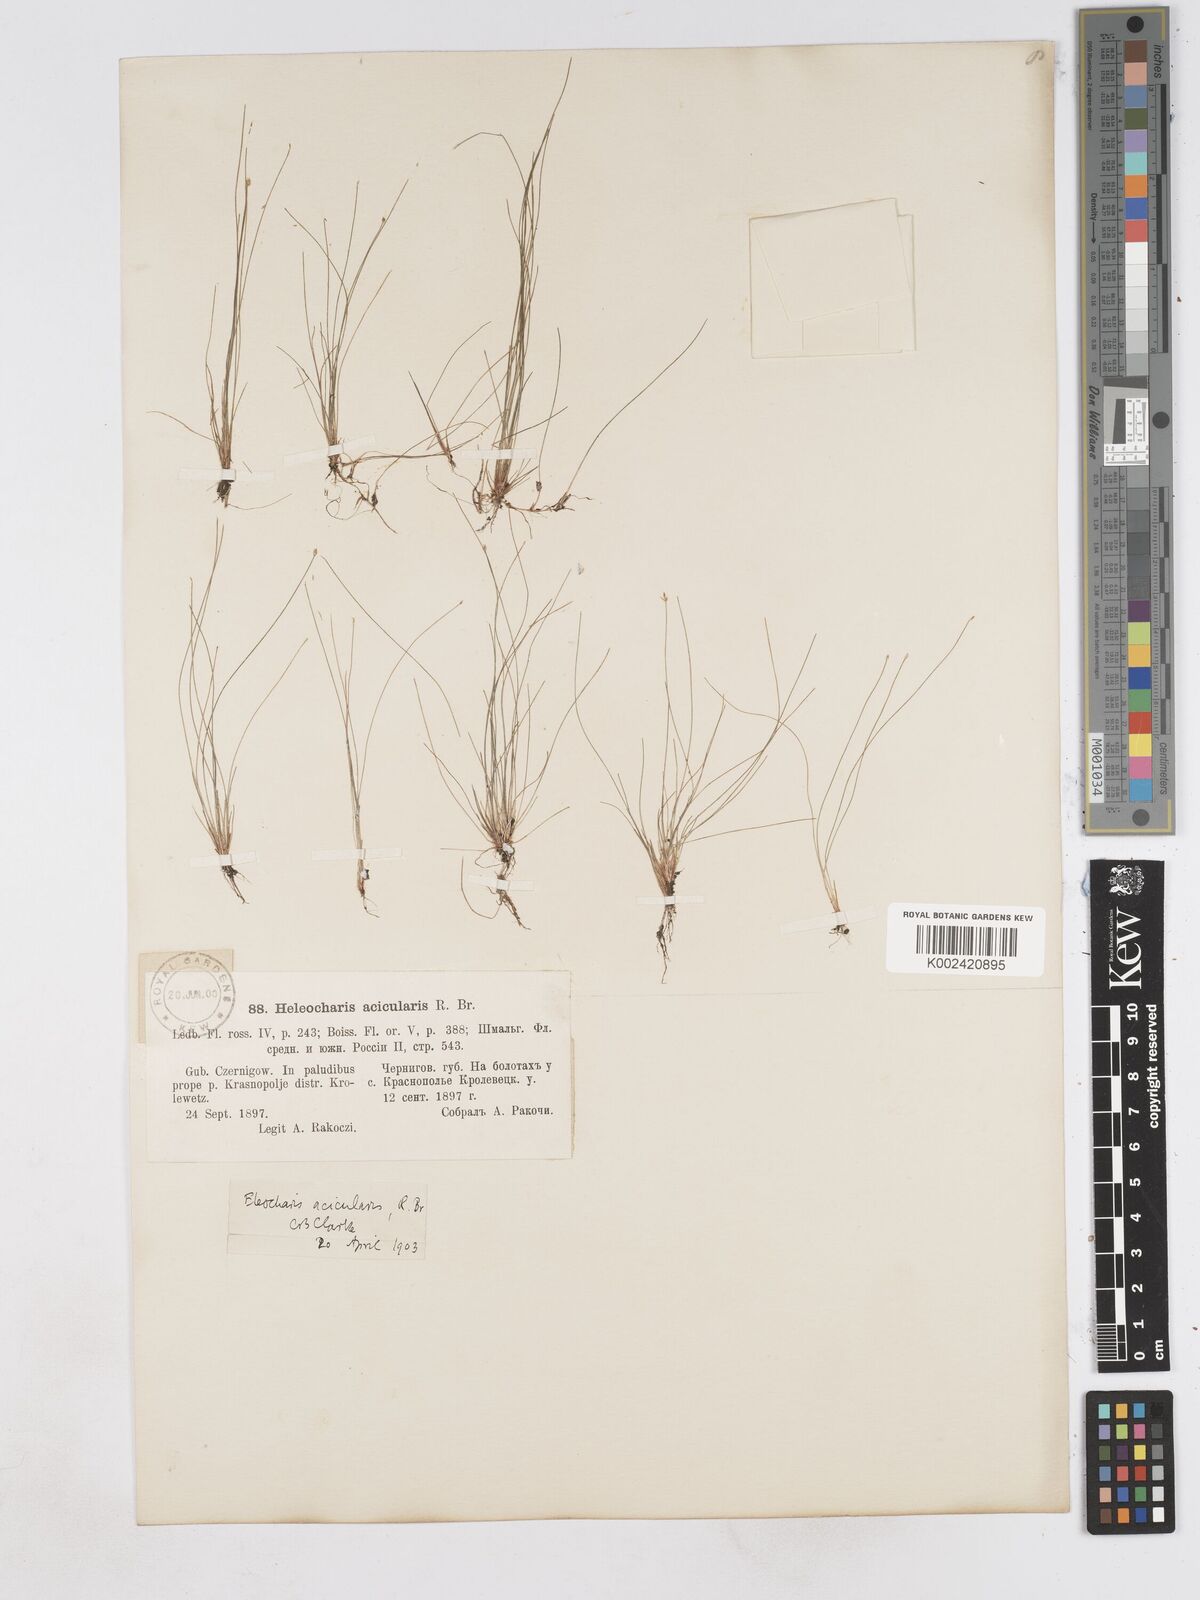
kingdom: Plantae
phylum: Tracheophyta
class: Liliopsida
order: Poales
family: Cyperaceae
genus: Eleocharis
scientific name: Eleocharis acicularis
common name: Needle spike-rush
